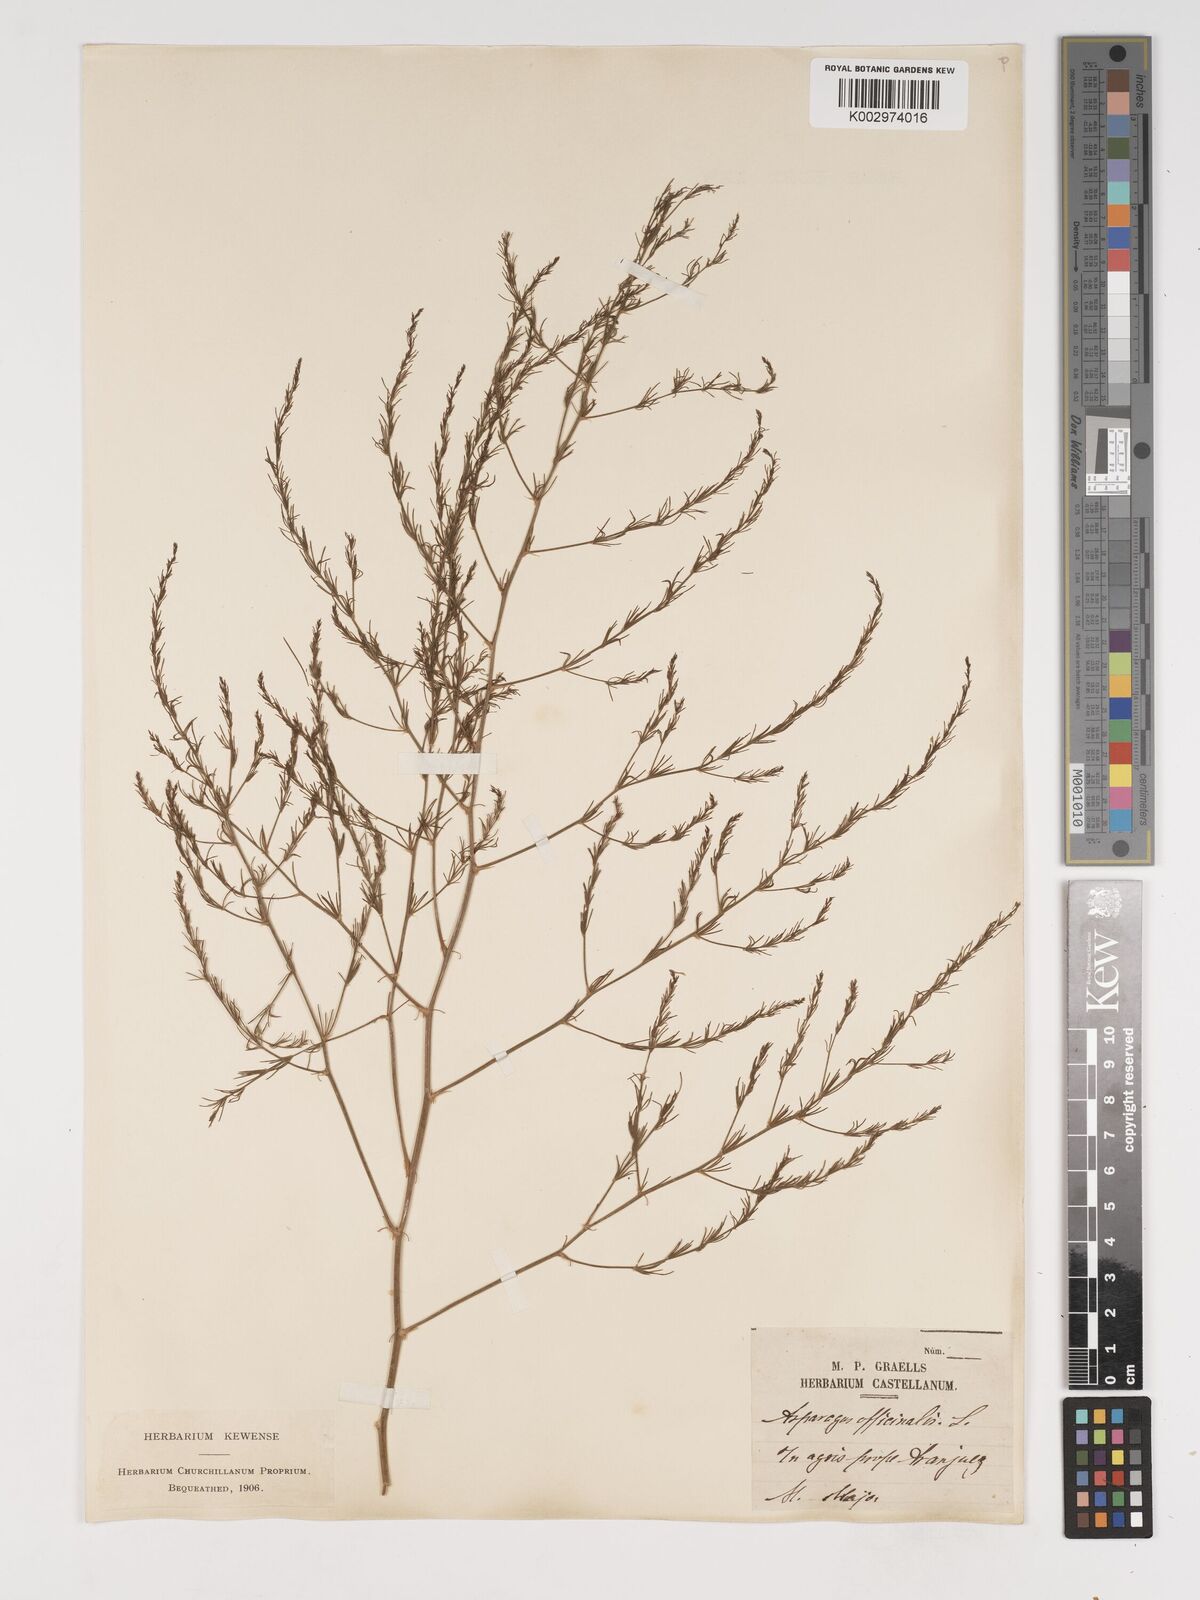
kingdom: Plantae
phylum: Tracheophyta
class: Liliopsida
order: Asparagales
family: Asparagaceae
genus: Asparagus
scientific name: Asparagus officinalis
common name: Garden asparagus
